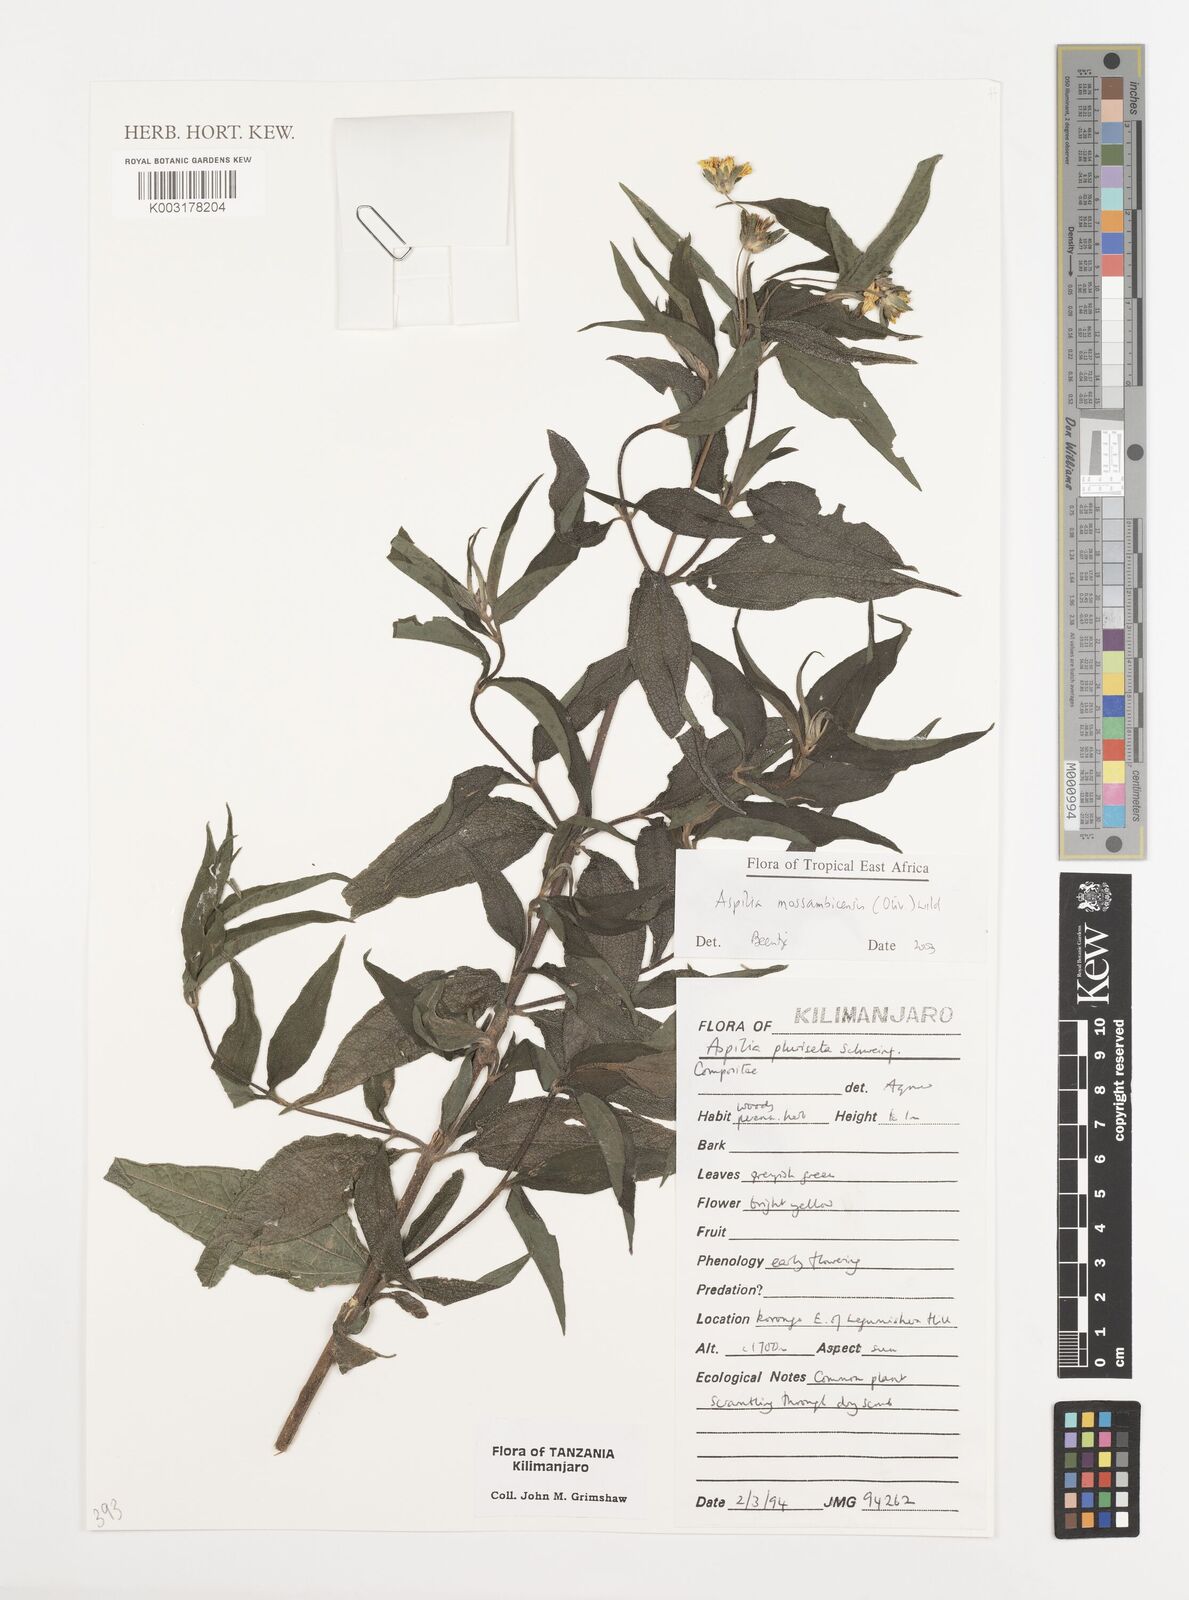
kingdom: Plantae
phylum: Tracheophyta
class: Magnoliopsida
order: Asterales
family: Asteraceae
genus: Aspilia
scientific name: Aspilia mossambicensis
